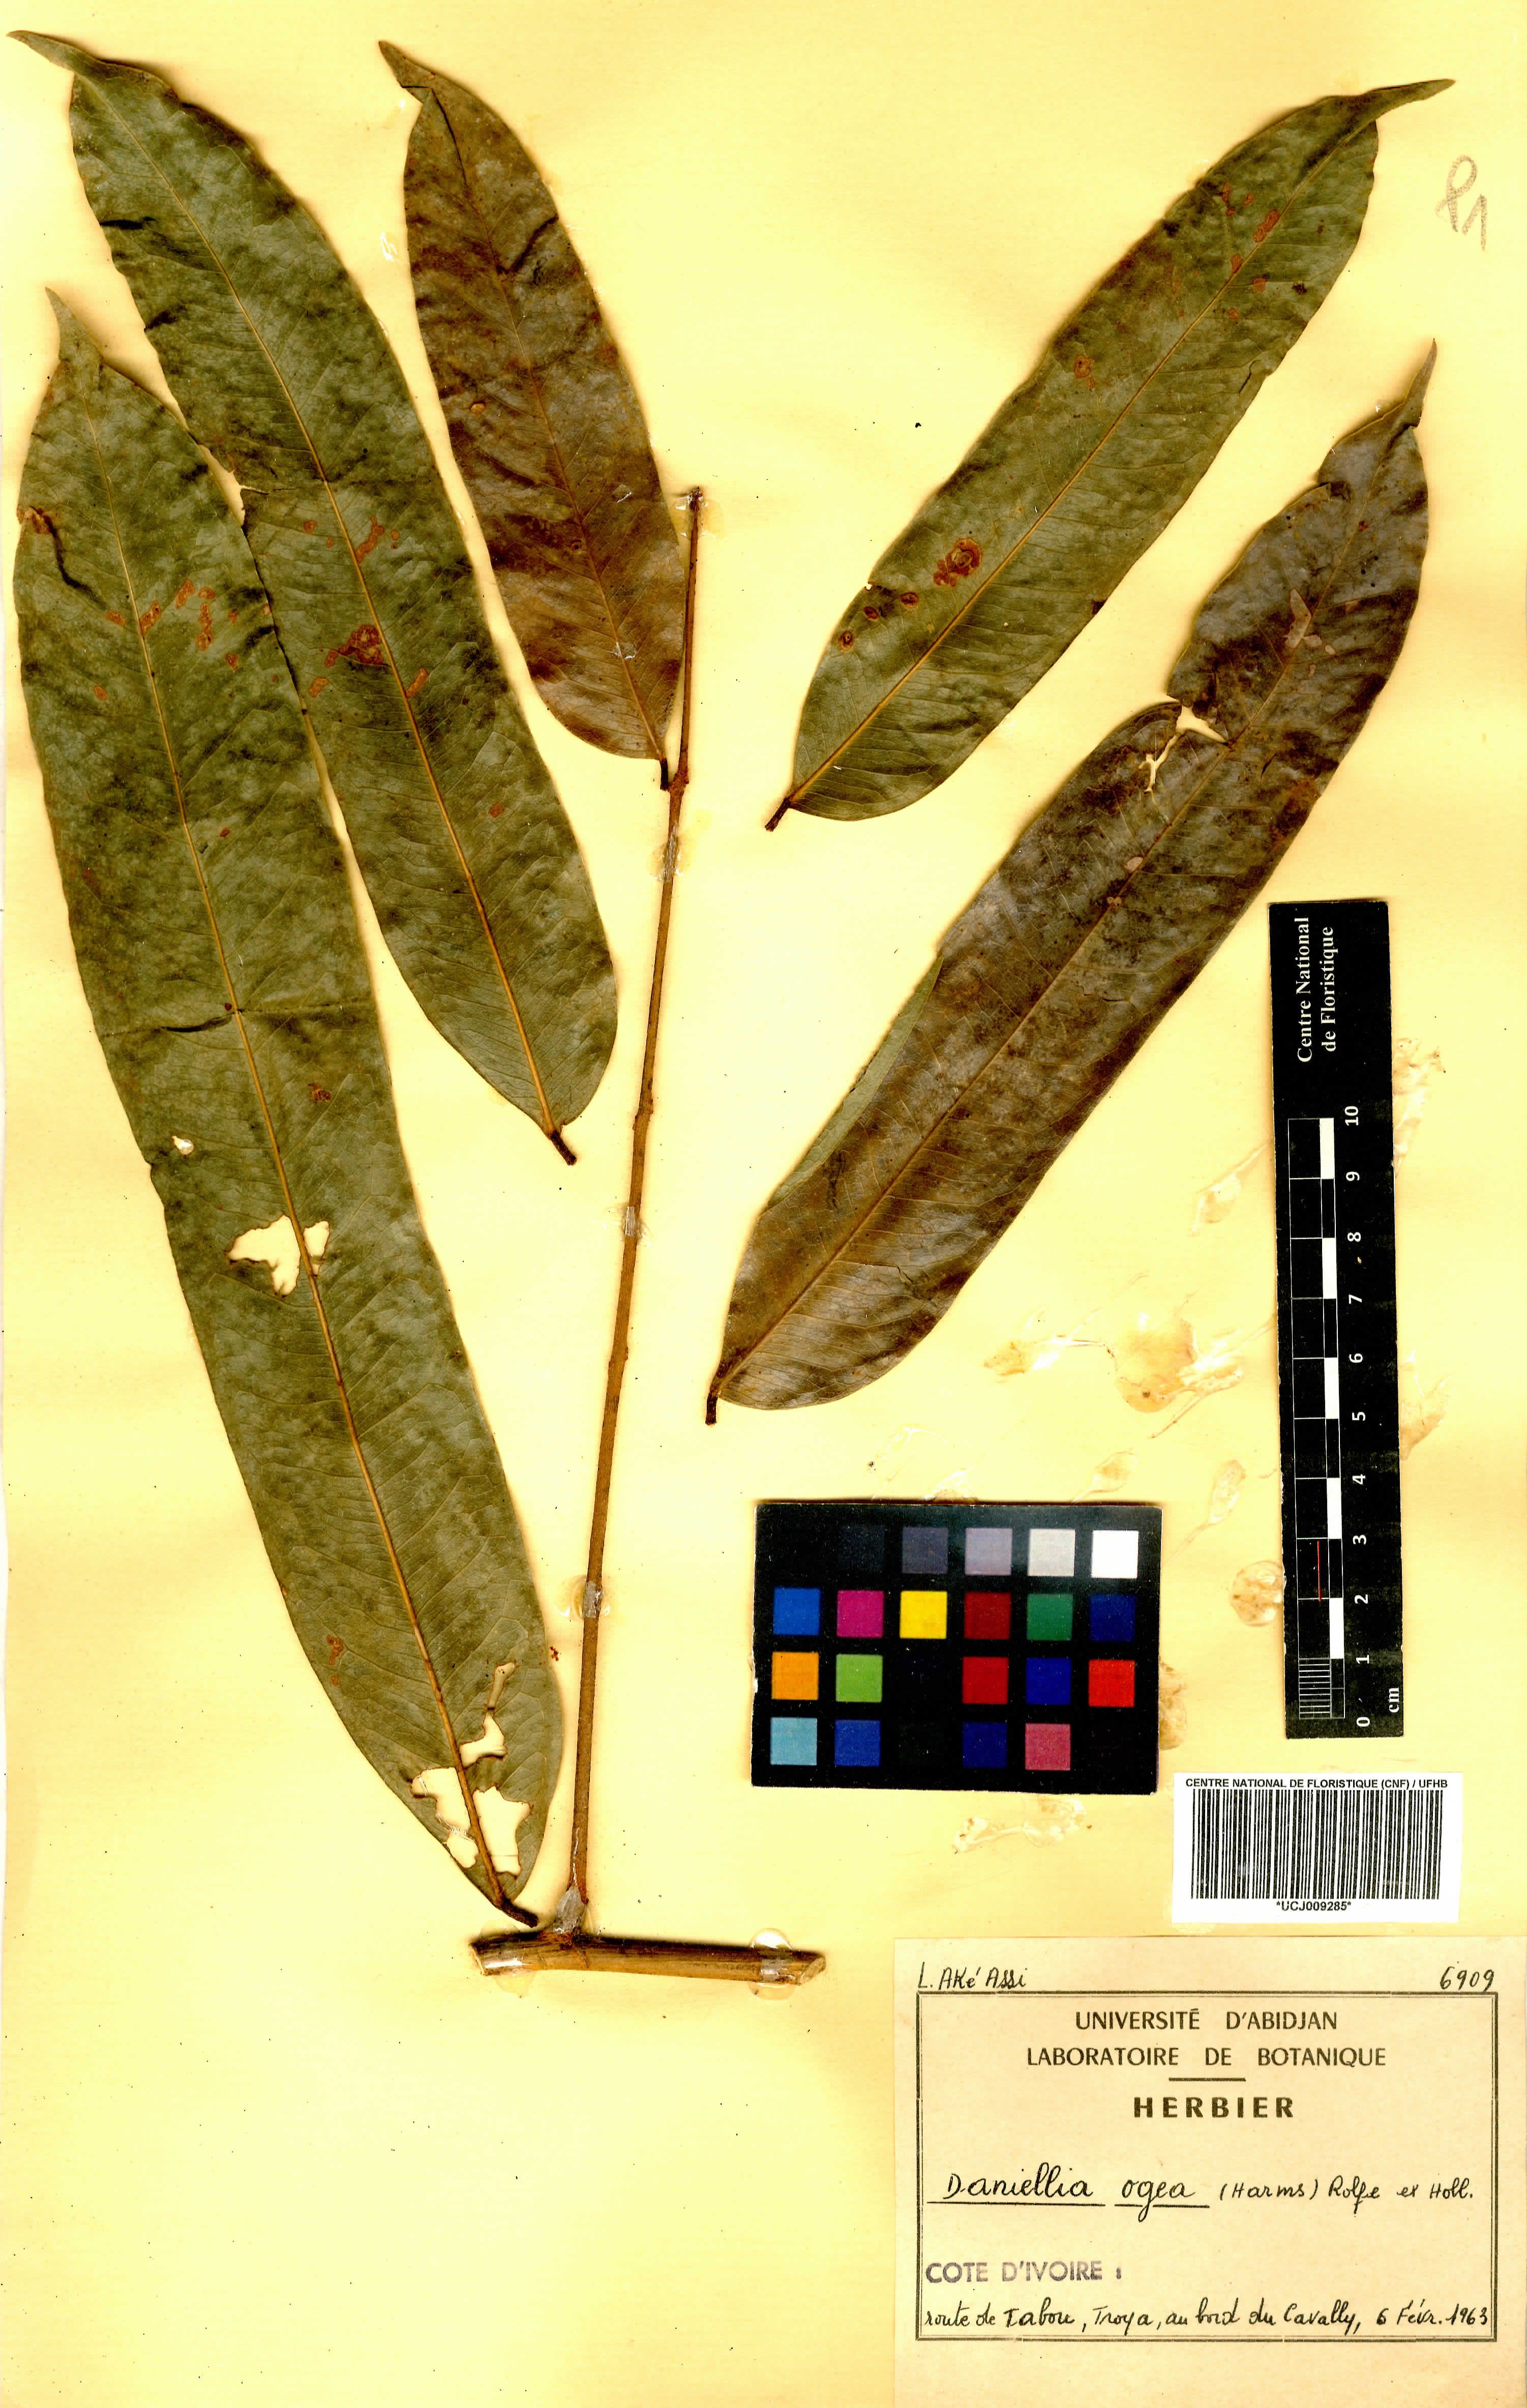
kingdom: Plantae
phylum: Tracheophyta
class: Magnoliopsida
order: Fabales
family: Fabaceae
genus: Daniellia
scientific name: Daniellia ogea
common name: Accra copal
